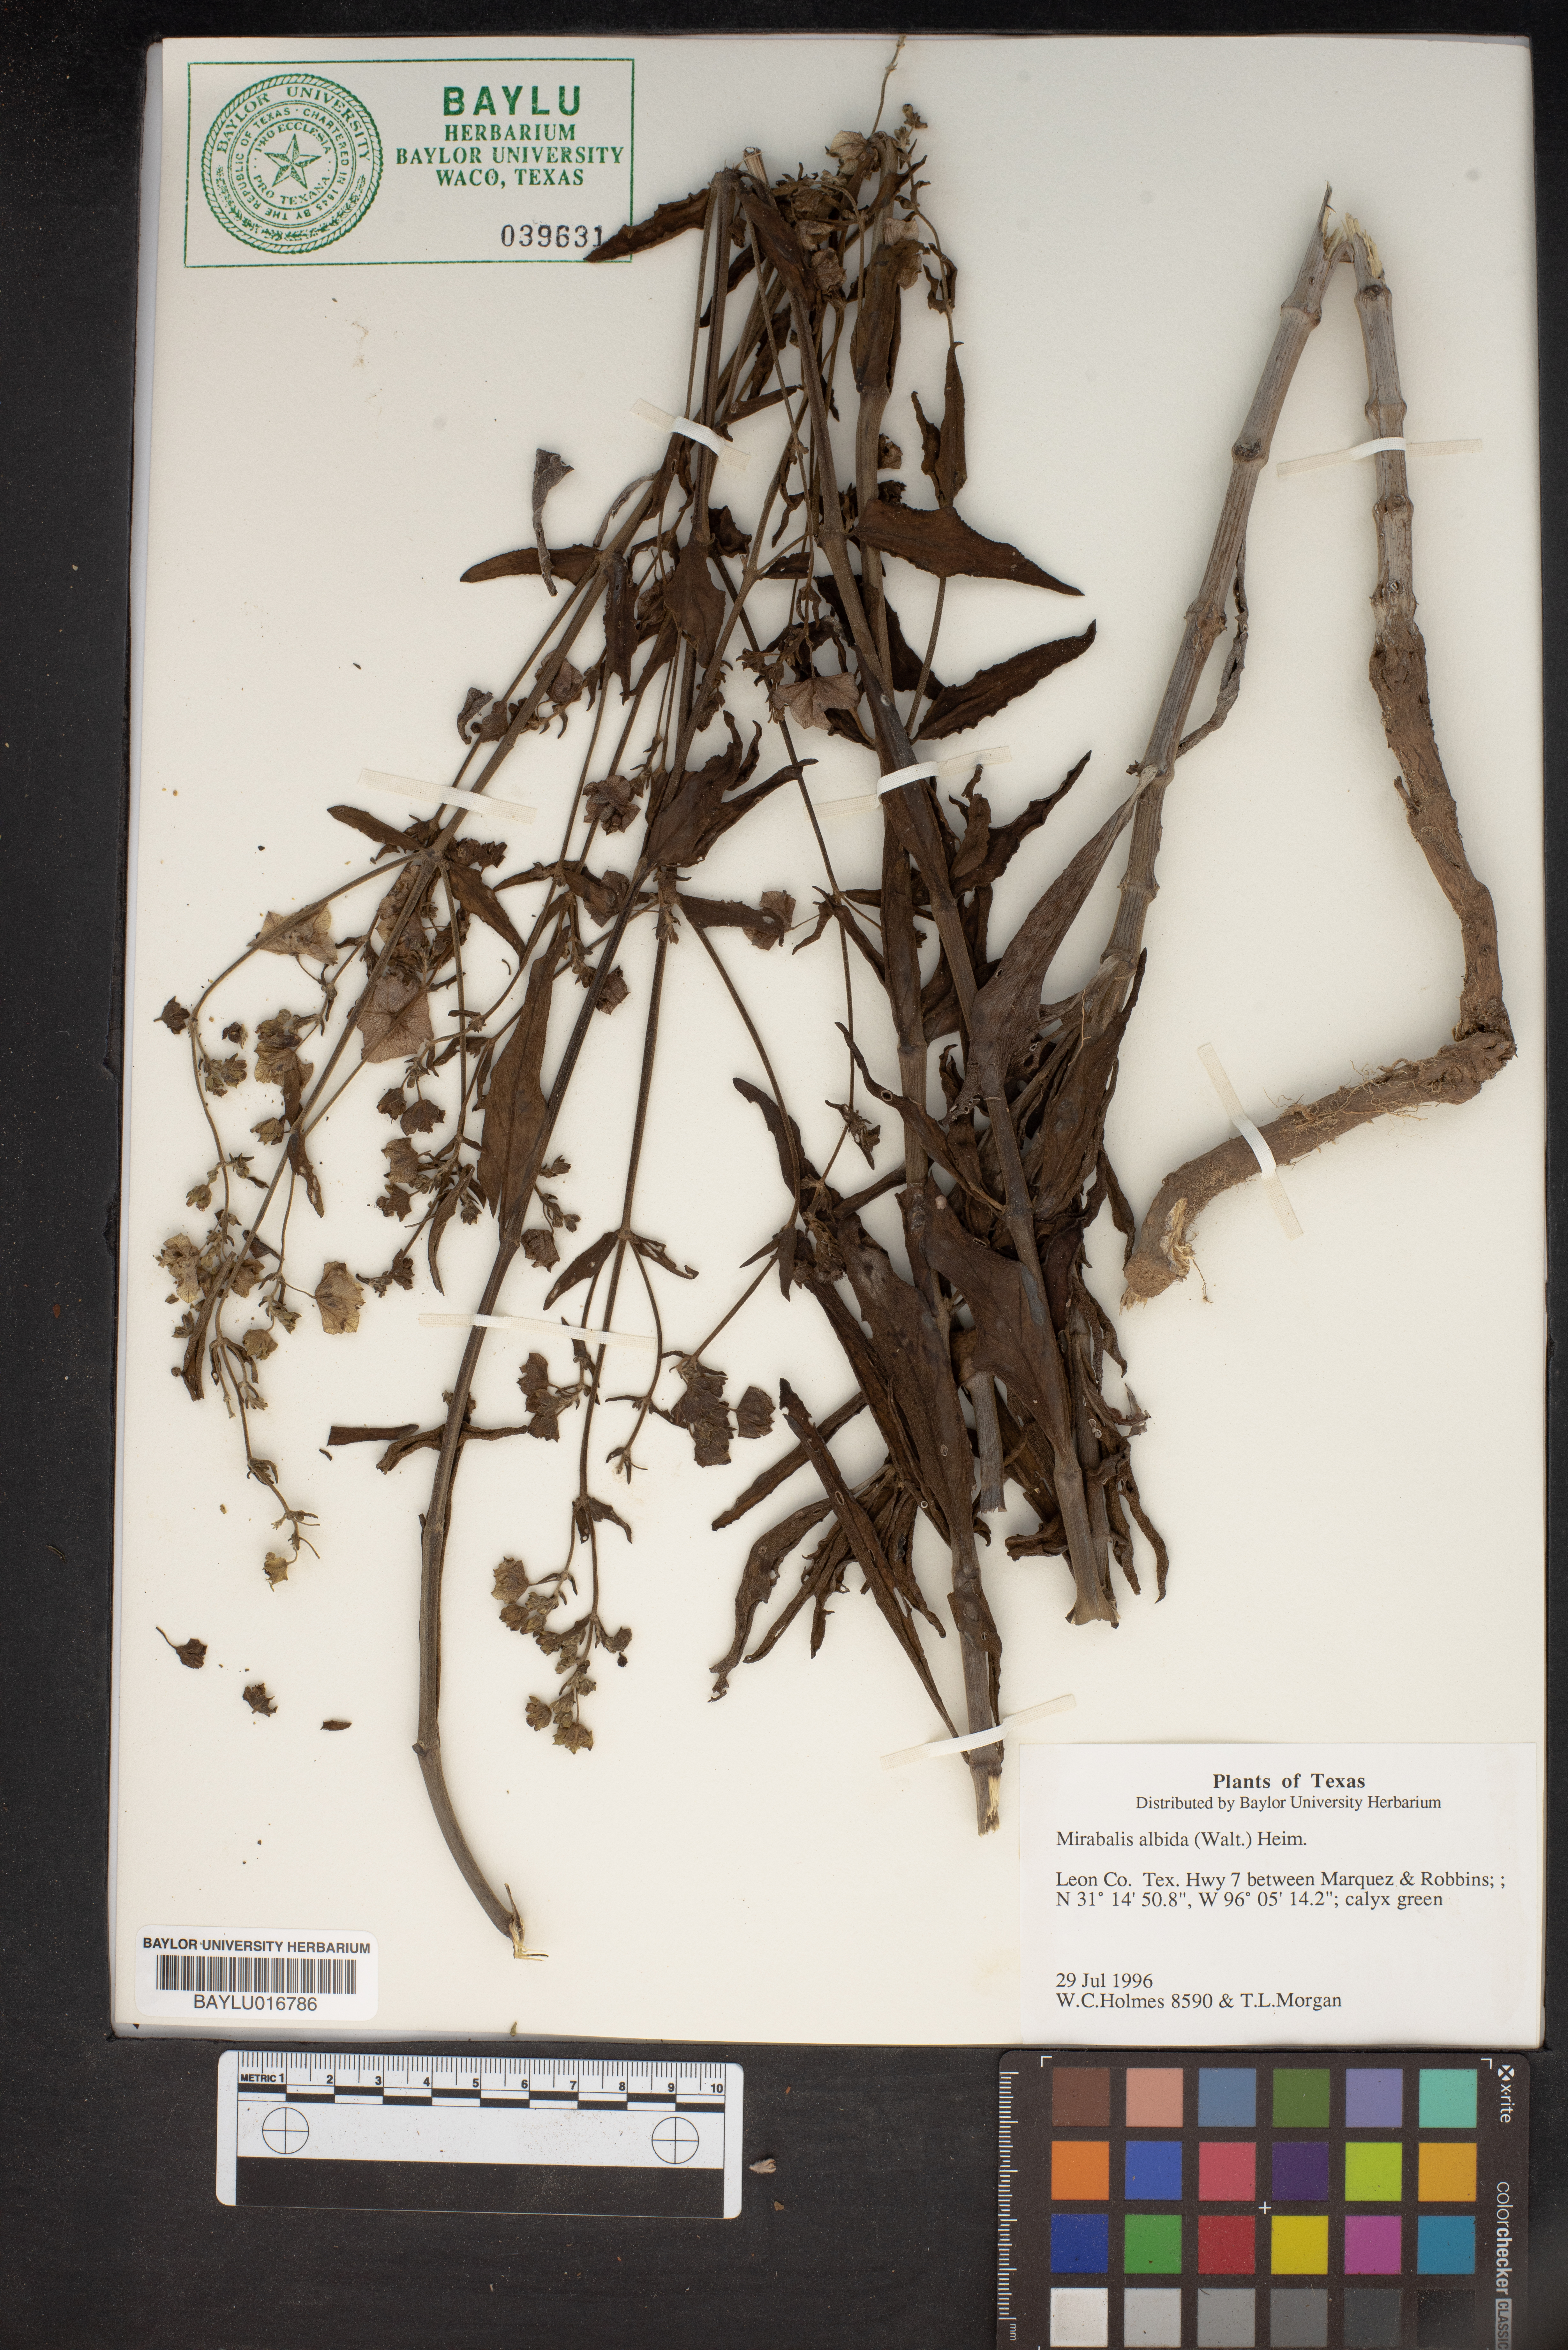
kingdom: Plantae
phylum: Tracheophyta
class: Magnoliopsida
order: Caryophyllales
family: Nyctaginaceae
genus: Mirabilis
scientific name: Mirabilis albida
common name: Hairy four-o'clock
